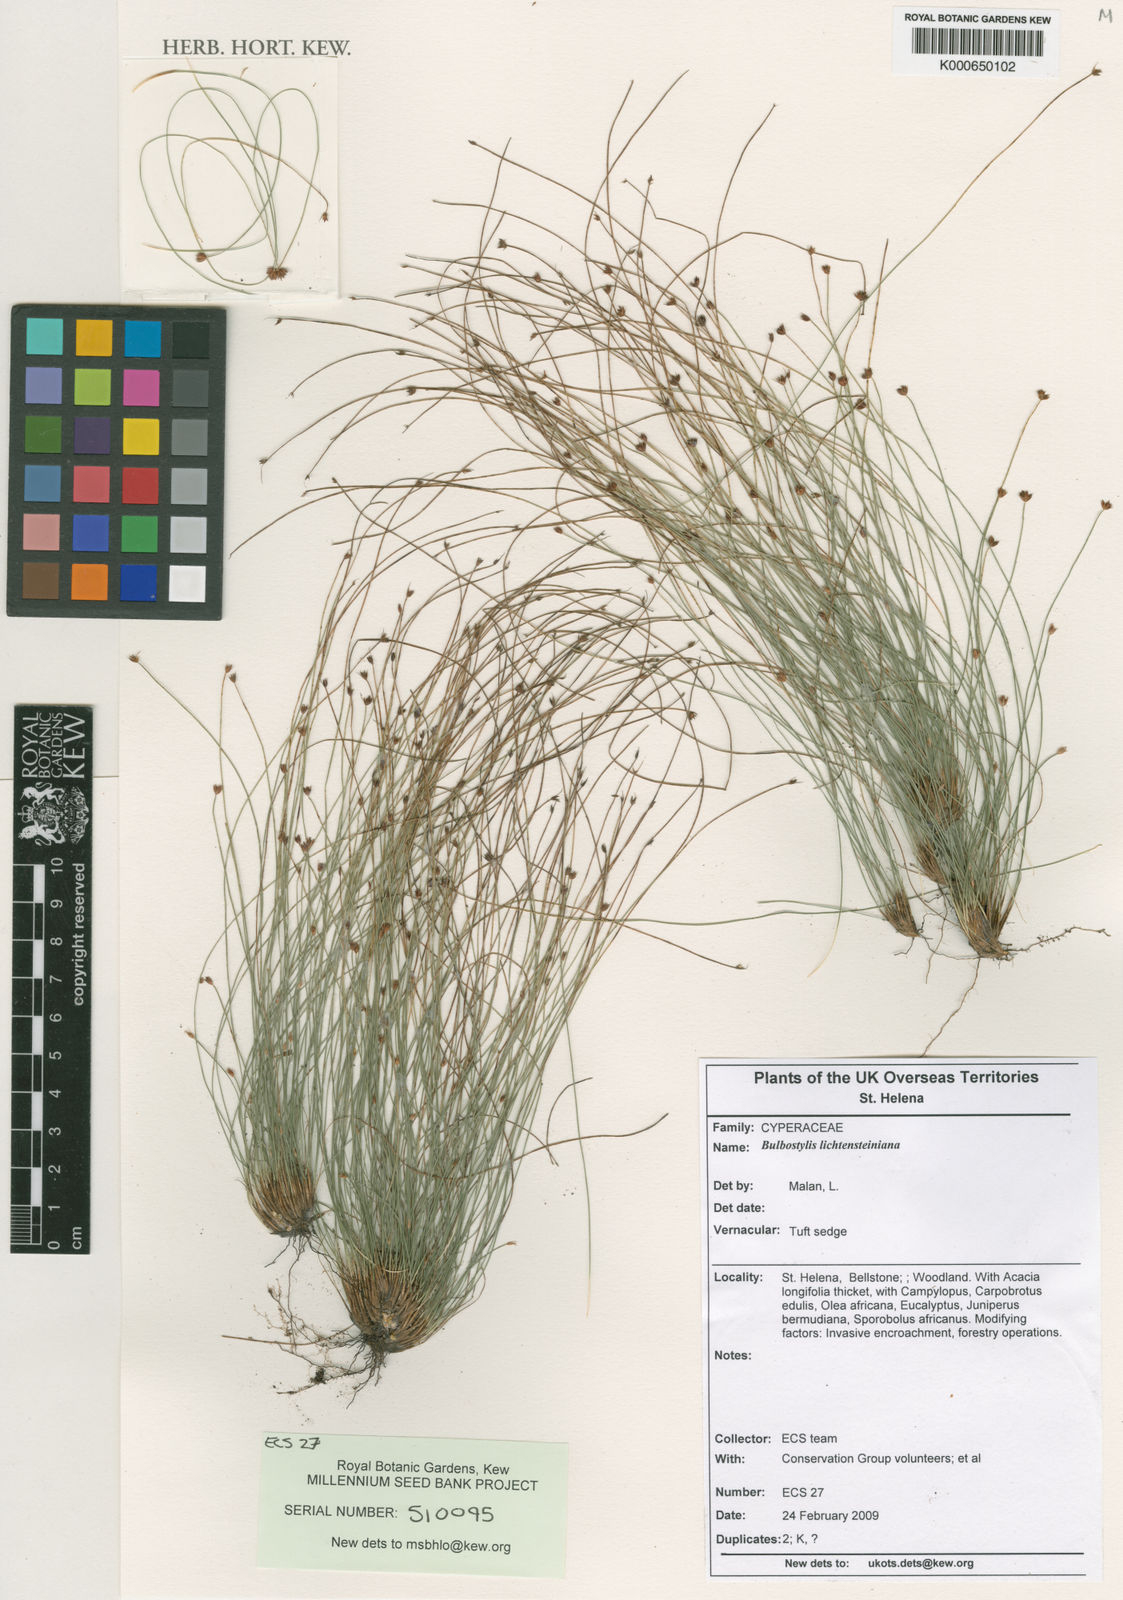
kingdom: Plantae
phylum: Tracheophyta
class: Liliopsida
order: Poales
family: Cyperaceae
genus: Bulbostylis
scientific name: Bulbostylis lichtensteiniana
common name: Tufted sedge
